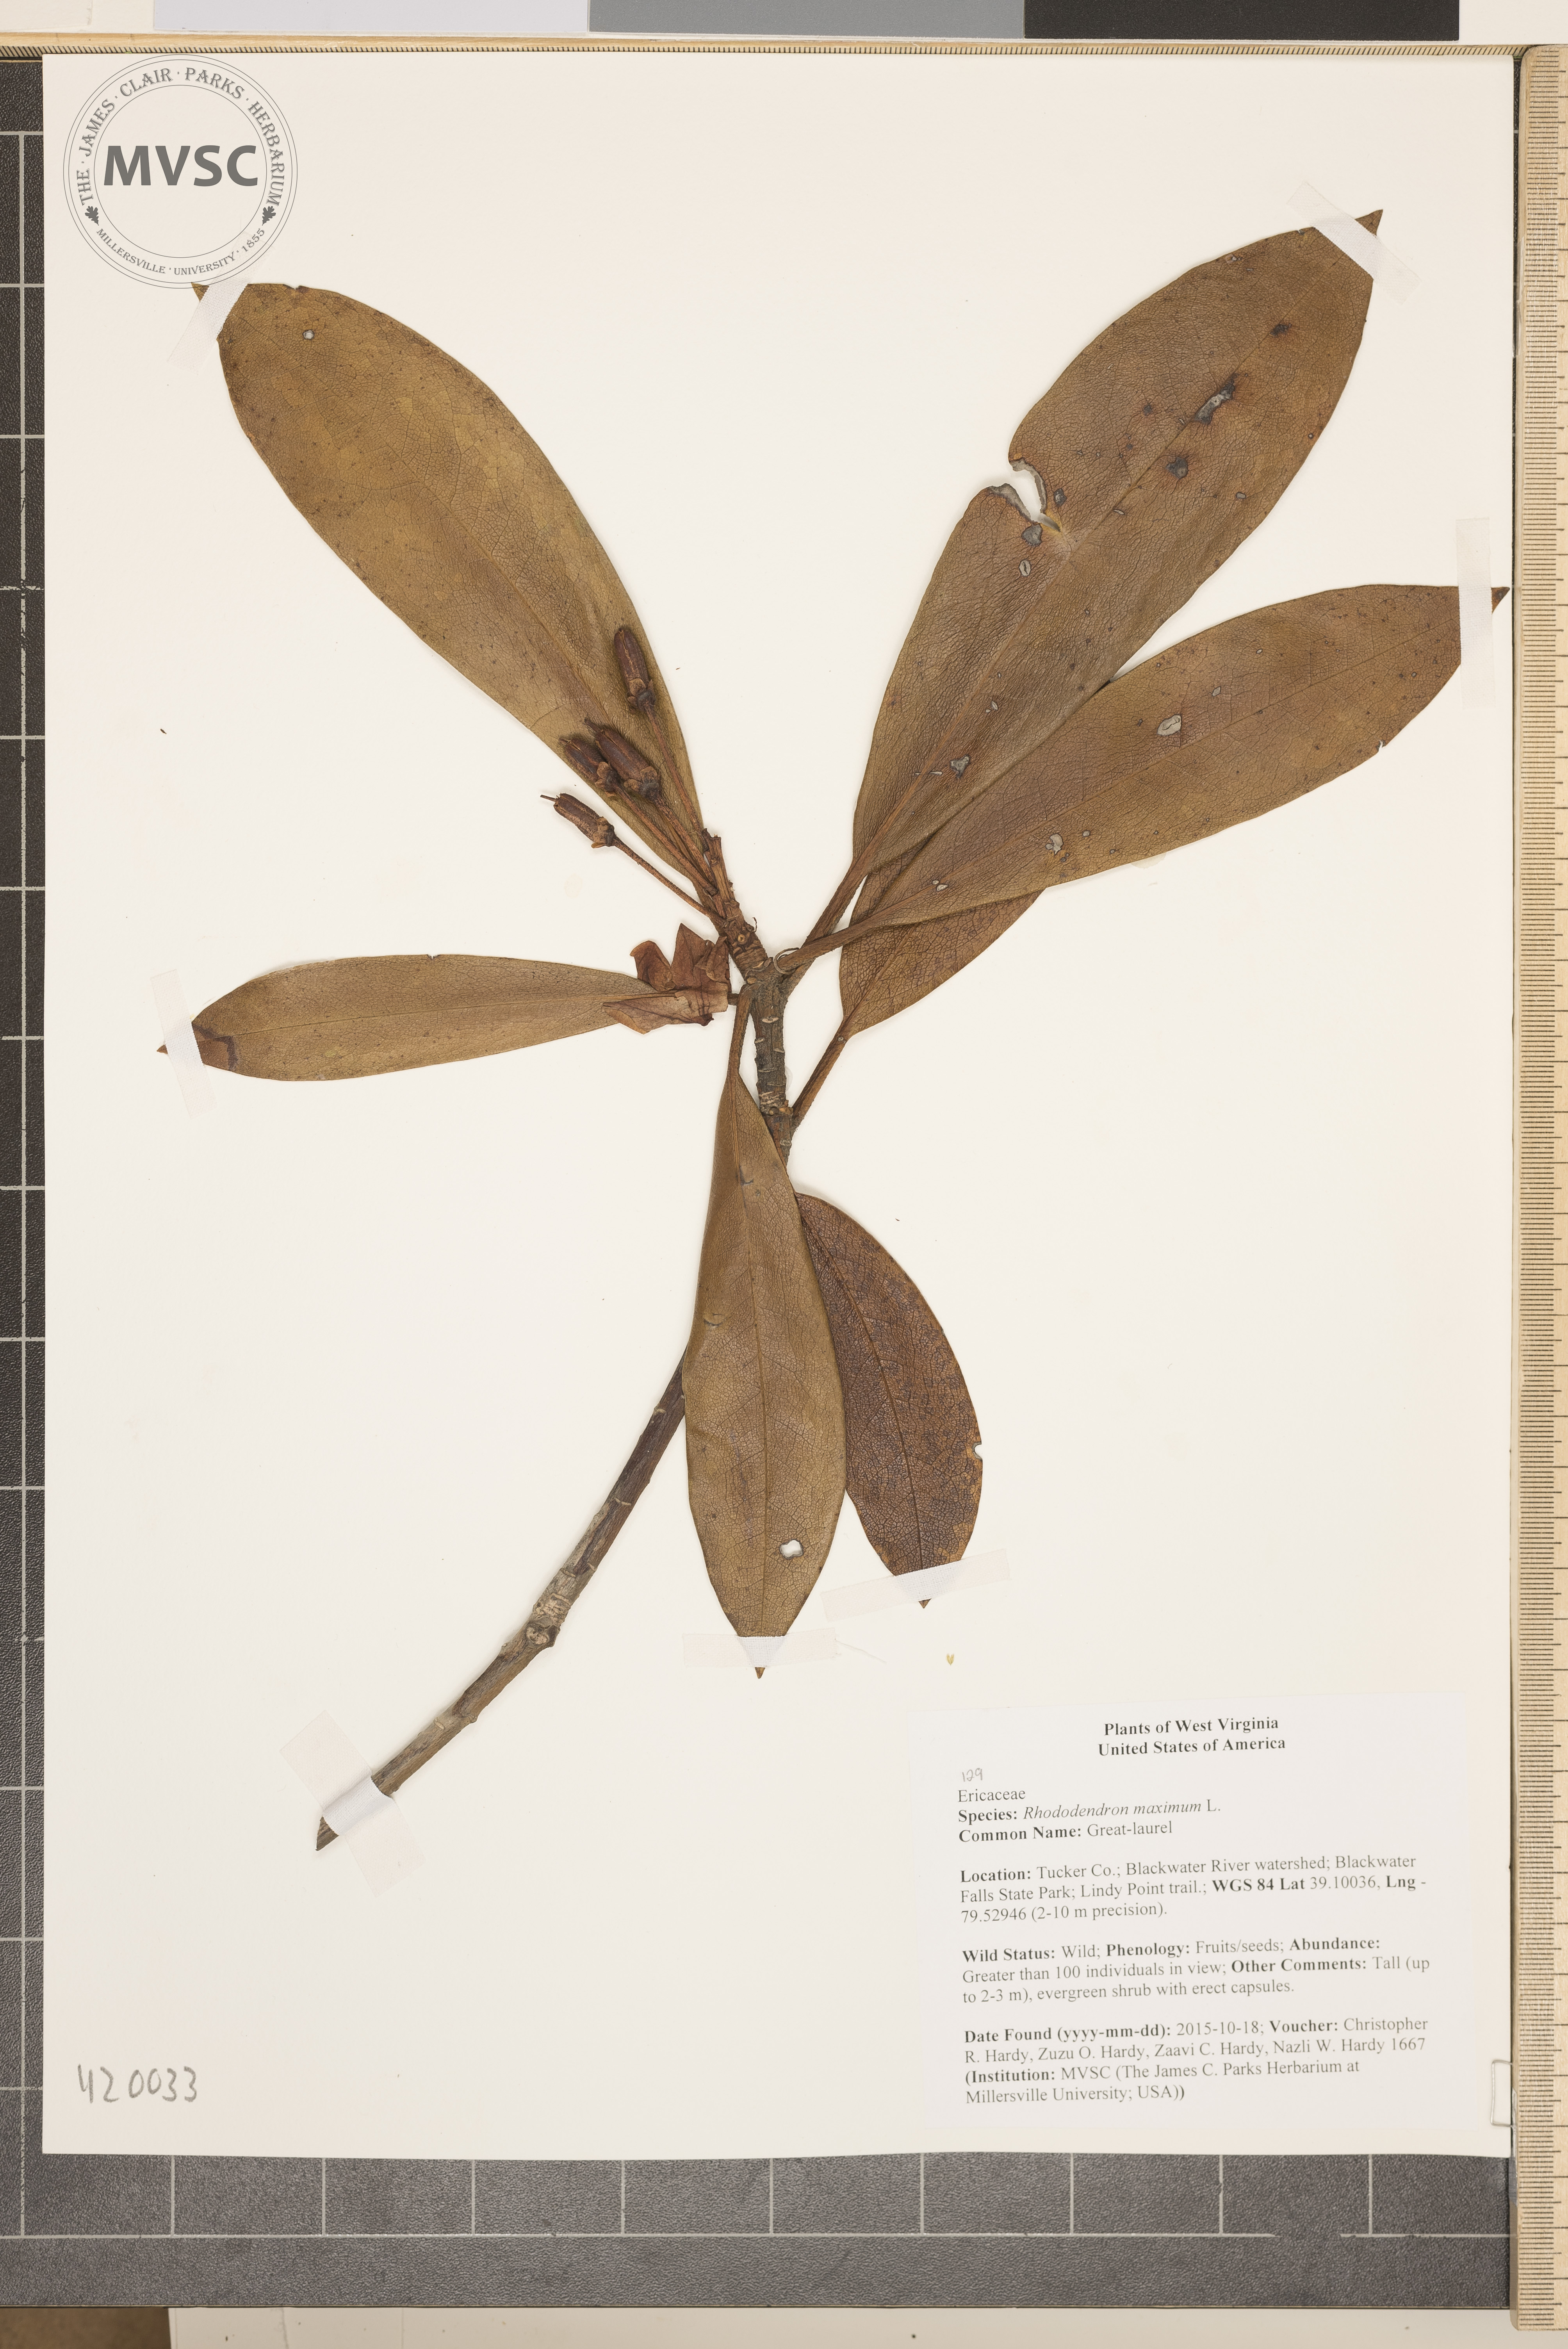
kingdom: Plantae
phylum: Tracheophyta
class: Magnoliopsida
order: Ericales
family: Ericaceae
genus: Rhododendron
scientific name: Rhododendron maximum
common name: Great-laurel
